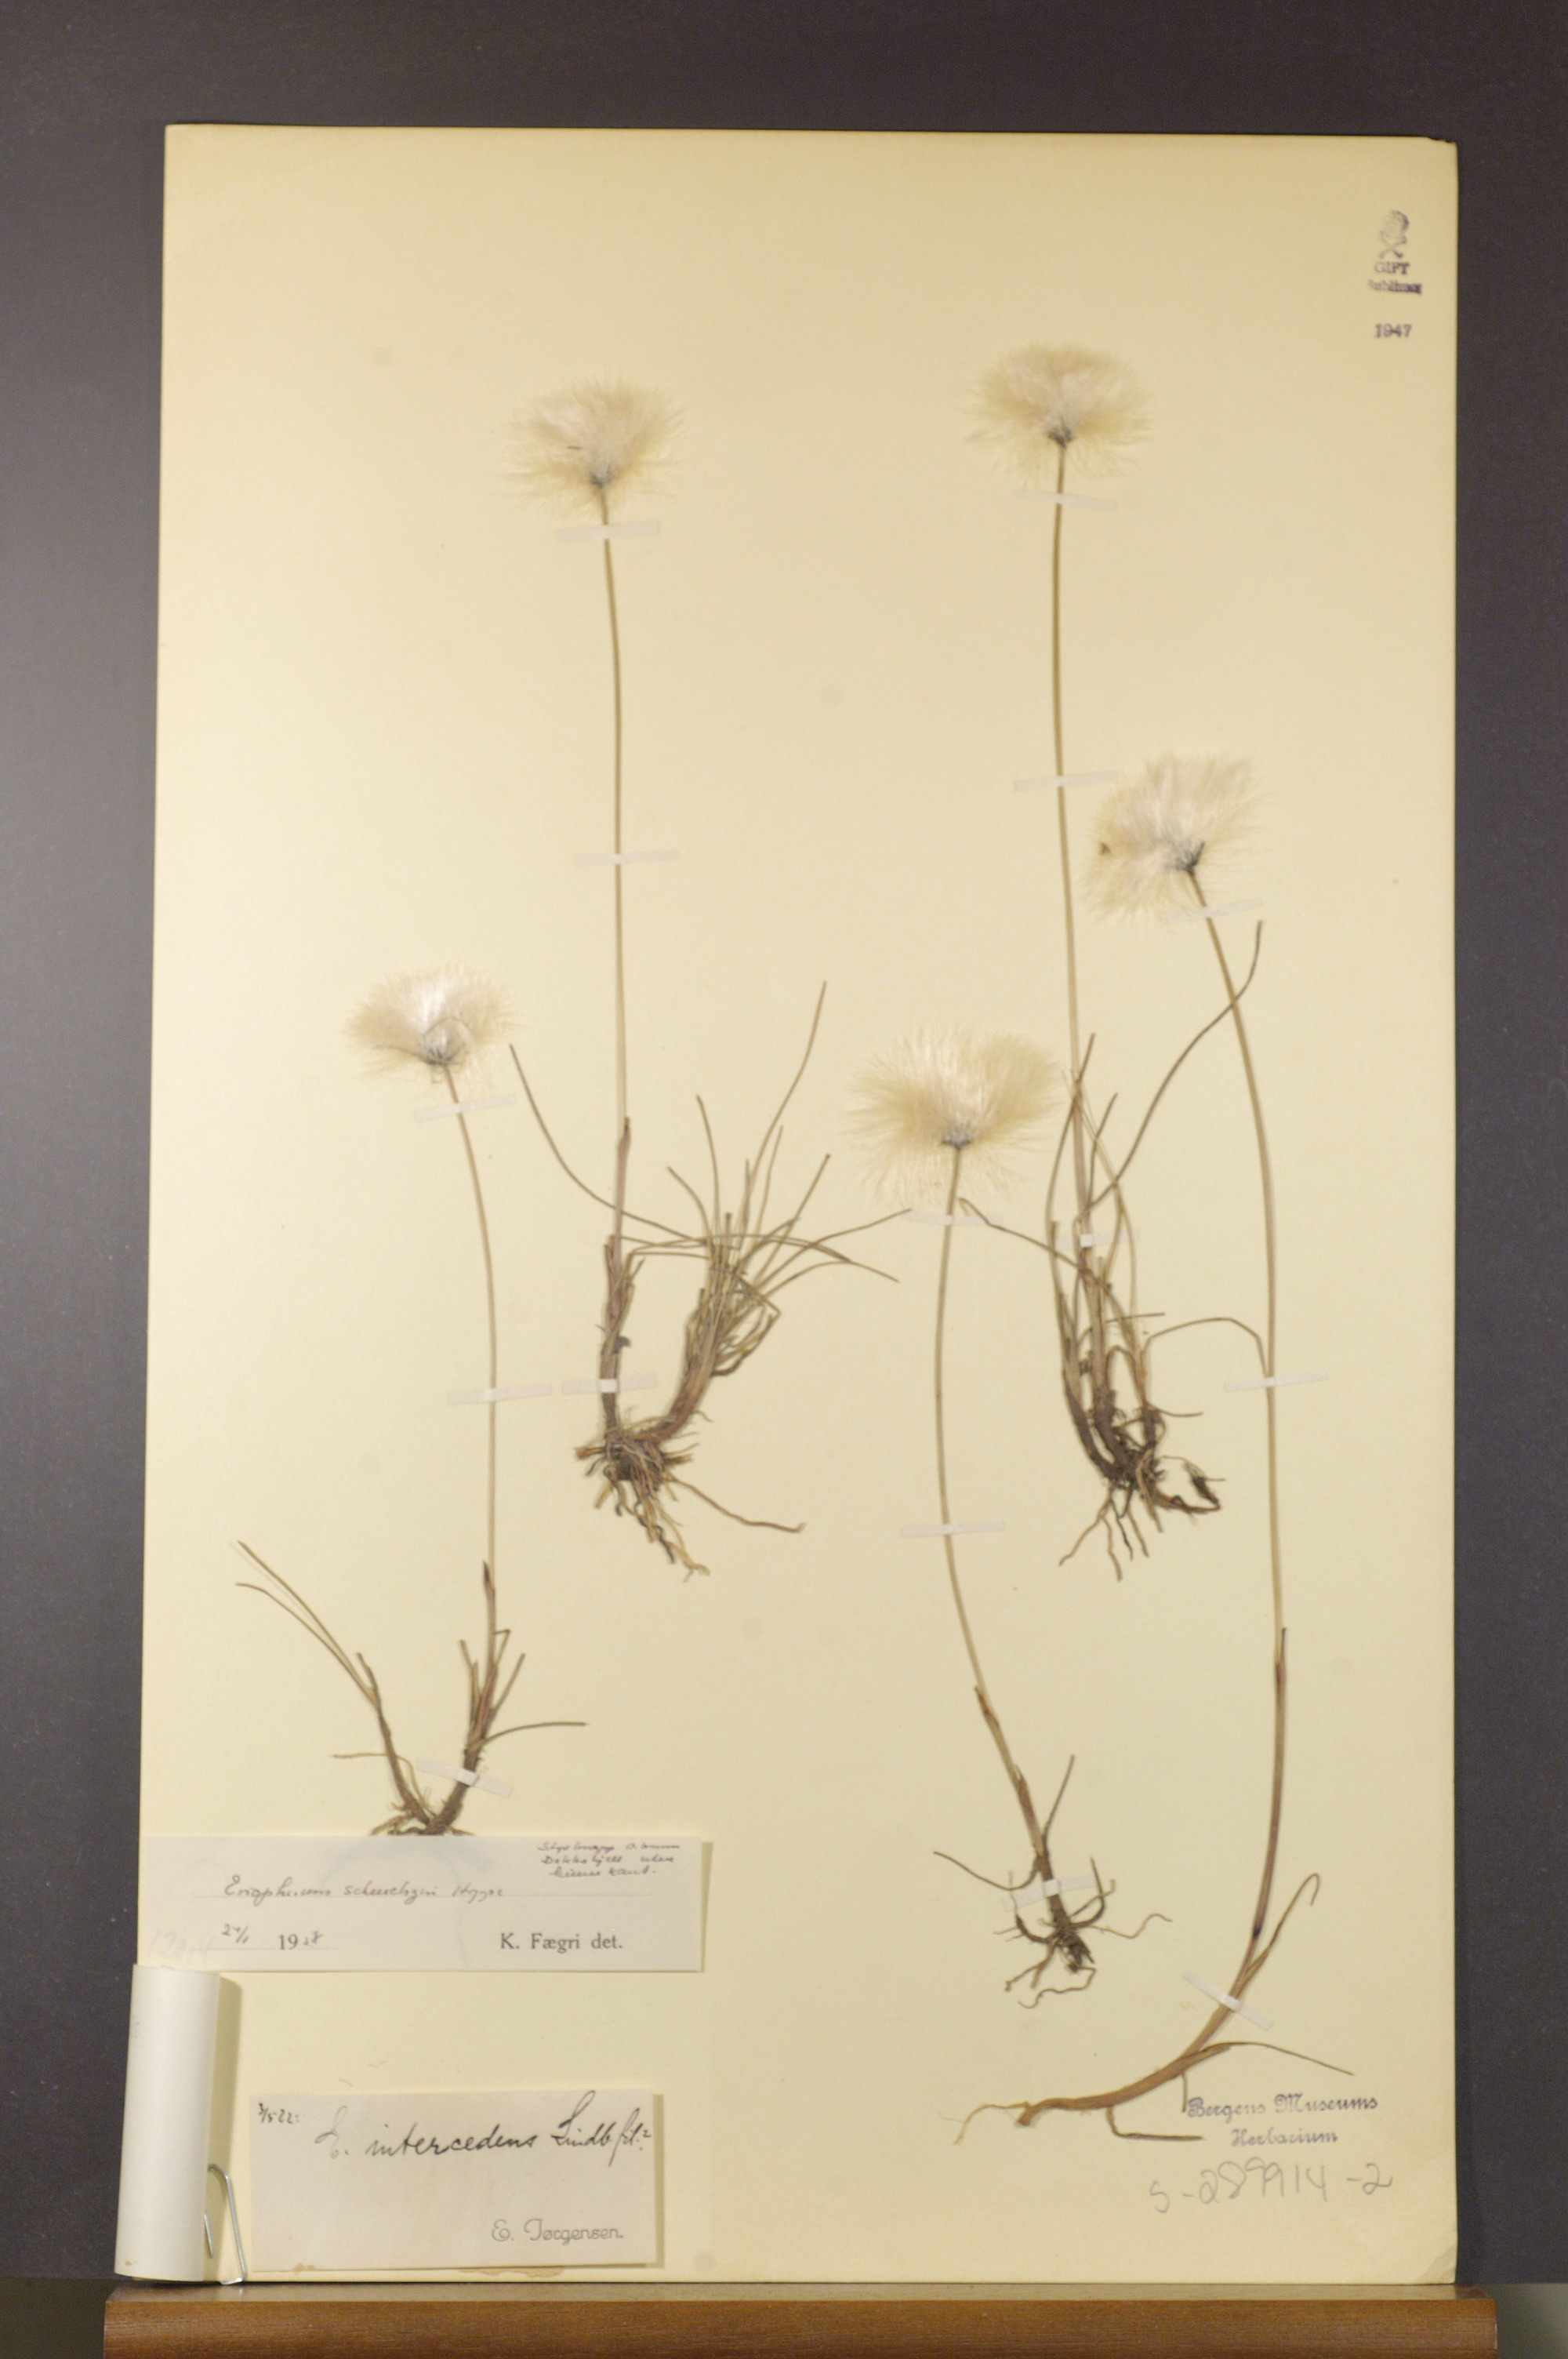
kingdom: Plantae
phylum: Tracheophyta
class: Liliopsida
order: Poales
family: Cyperaceae
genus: Eriophorum
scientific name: Eriophorum scheuchzeri
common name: Scheuchzer's cottongrass
